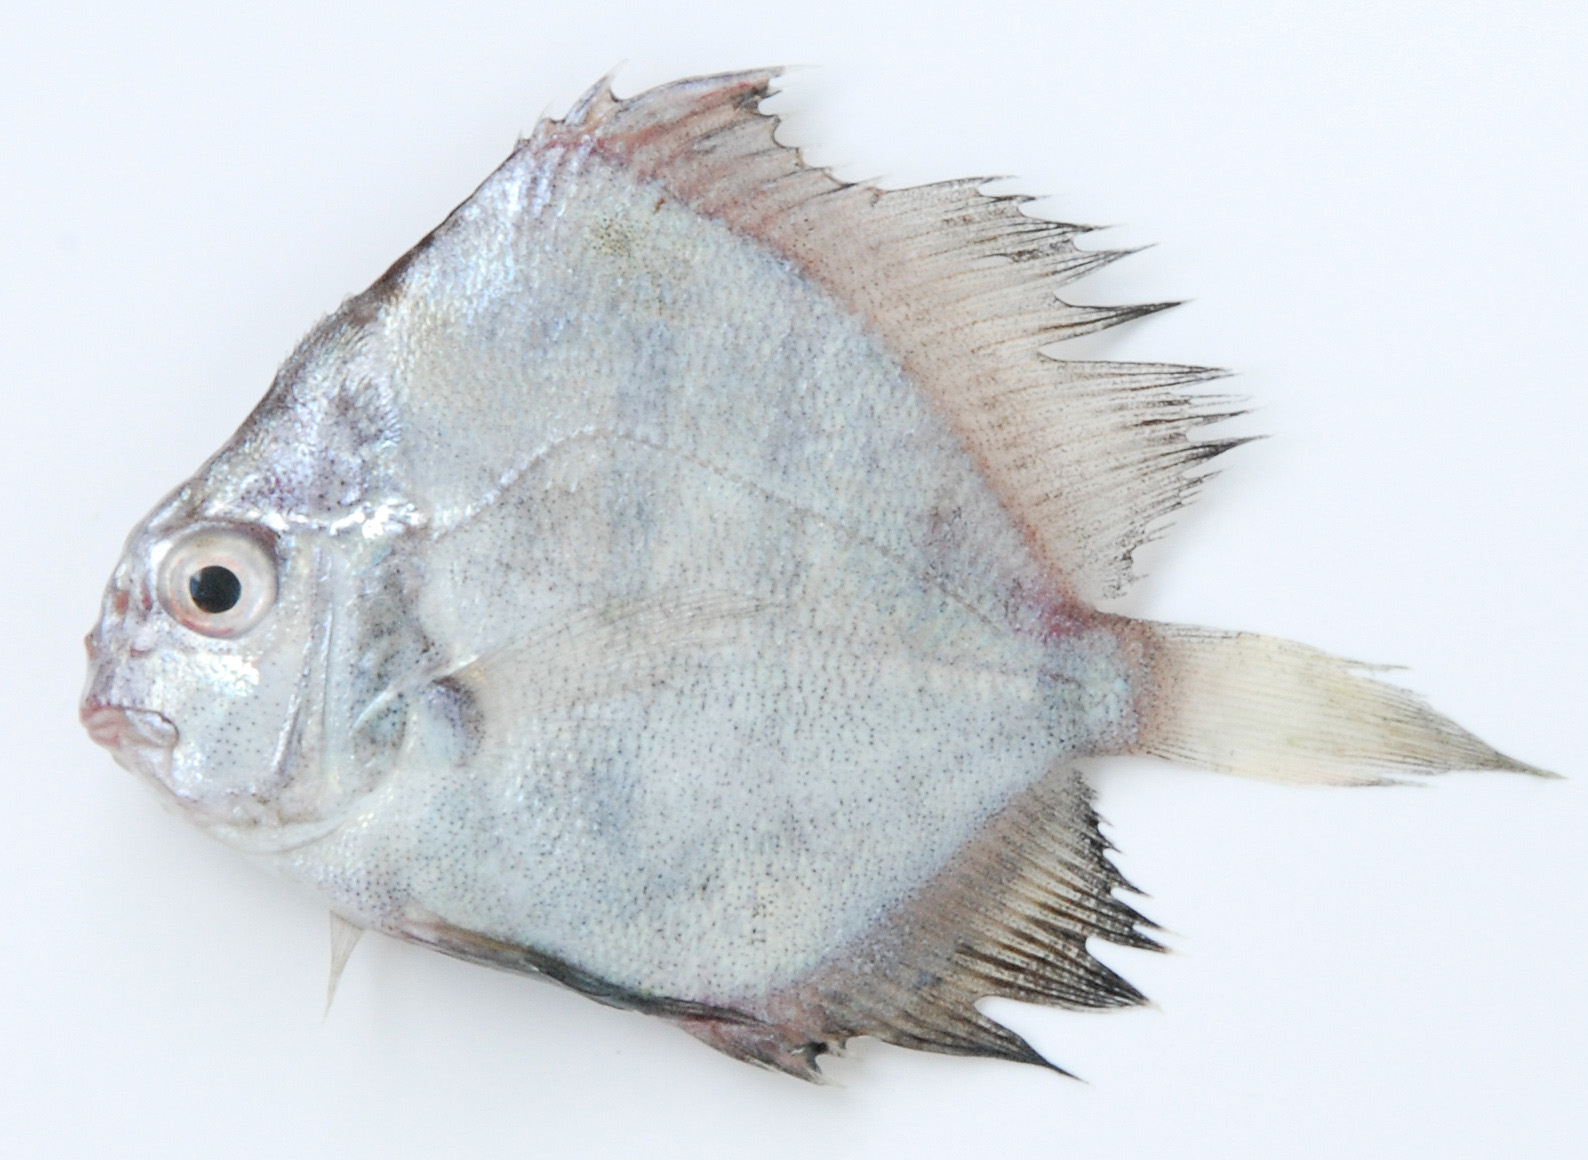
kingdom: Animalia
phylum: Chordata
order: Perciformes
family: Drepaneidae
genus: Drepane
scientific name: Drepane longimana
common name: Concertina fish
